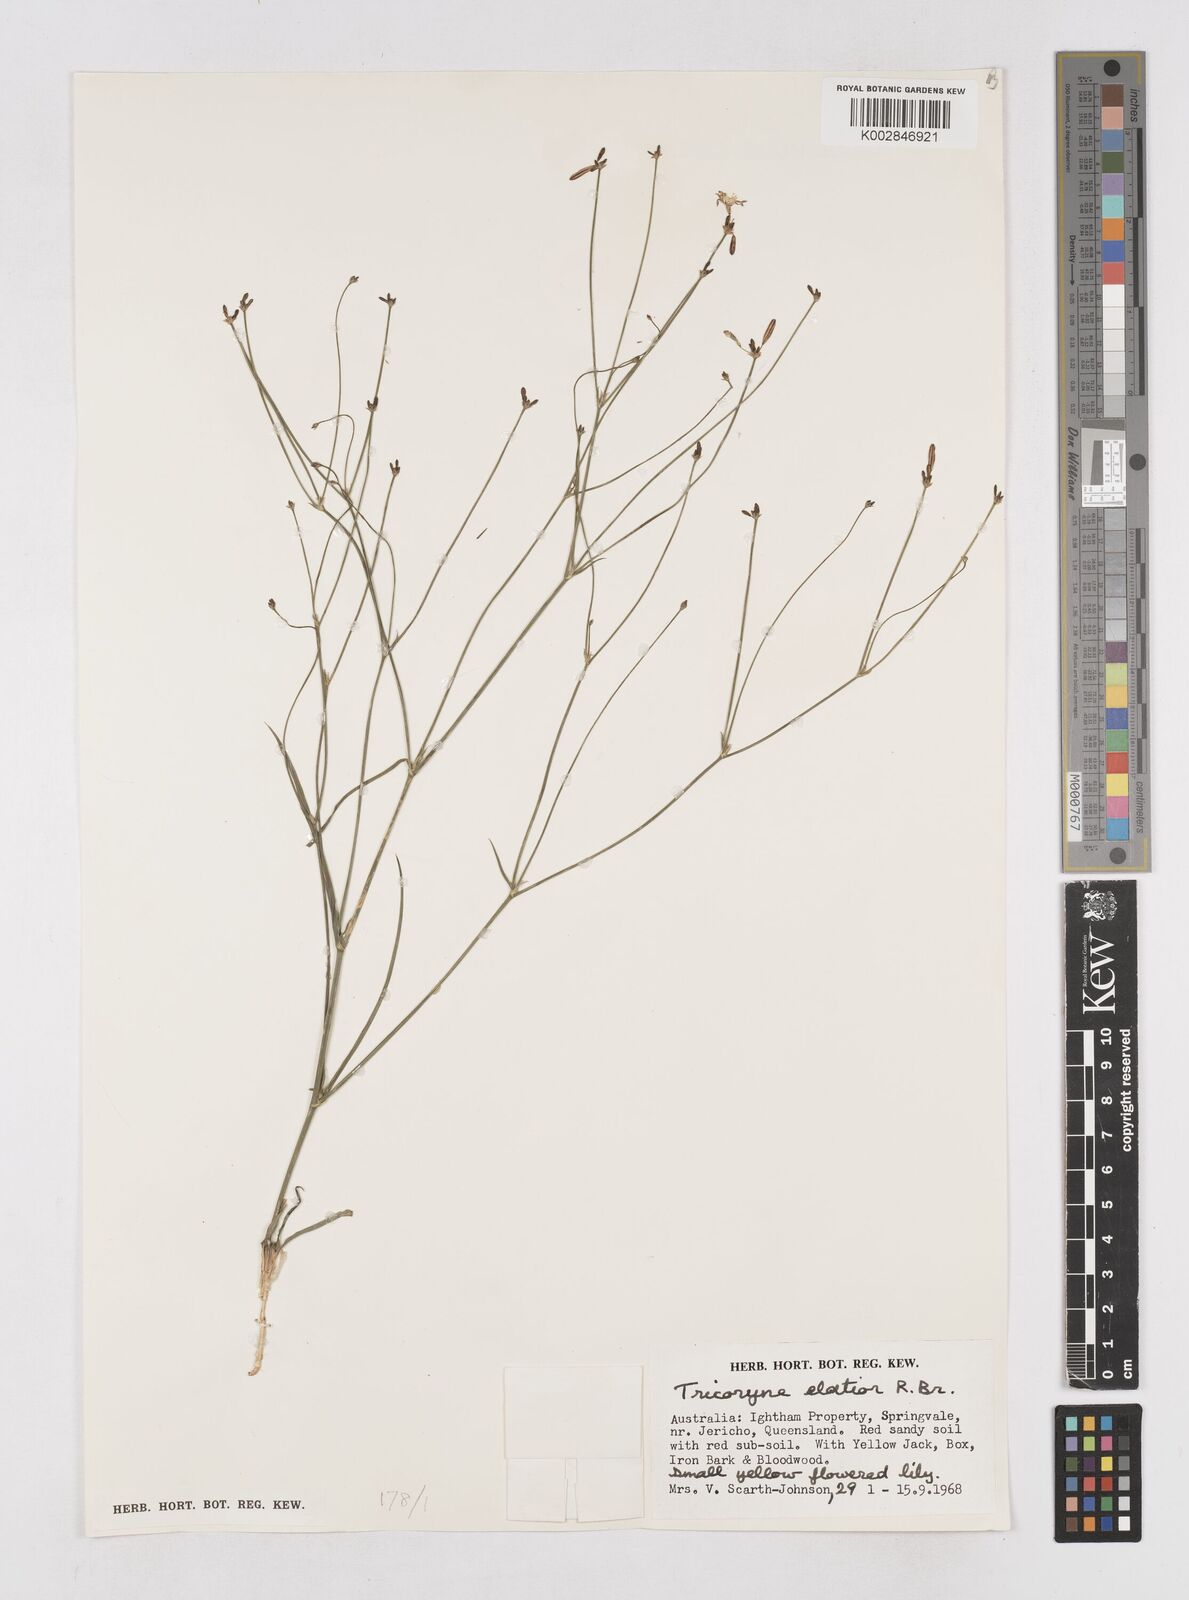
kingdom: Plantae
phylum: Tracheophyta
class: Liliopsida
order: Asparagales
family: Asphodelaceae
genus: Tricoryne
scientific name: Tricoryne elatior
